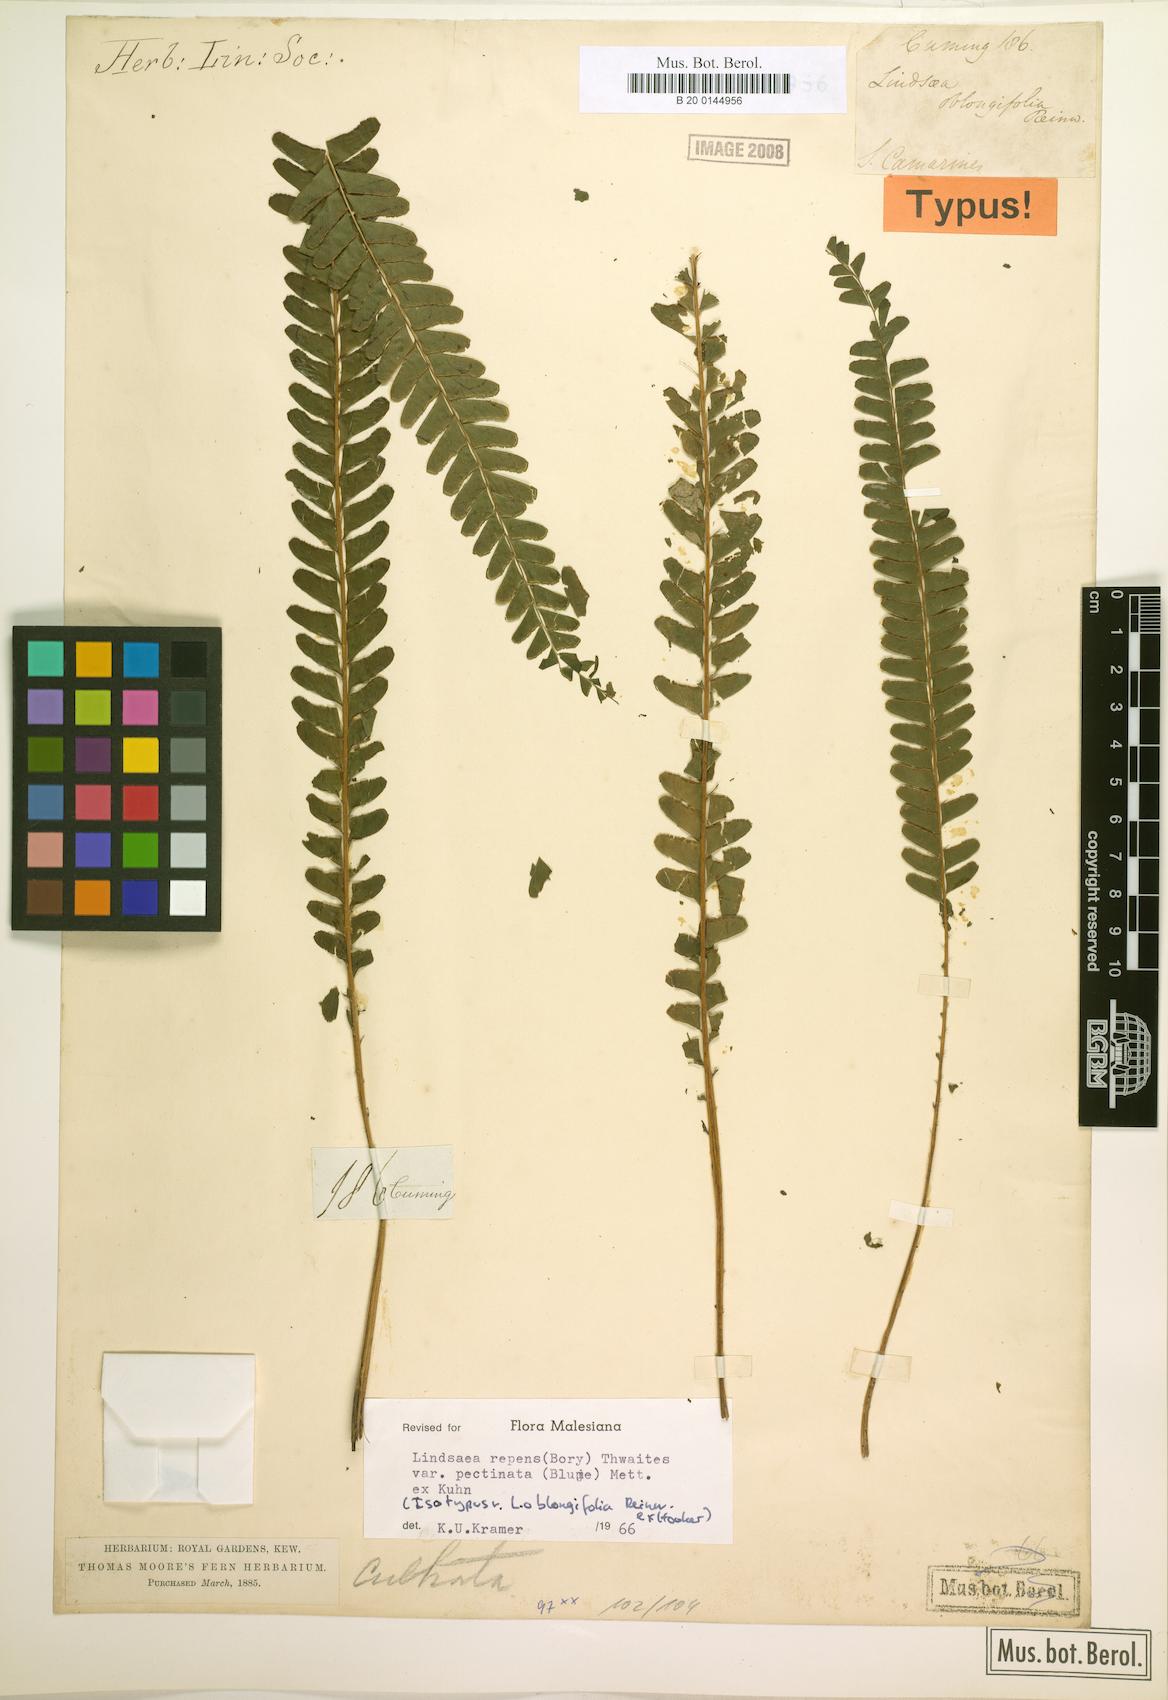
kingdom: Plantae
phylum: Tracheophyta
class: Polypodiopsida
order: Polypodiales
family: Lindsaeaceae
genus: Lindsaea
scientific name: Lindsaea pectinata
